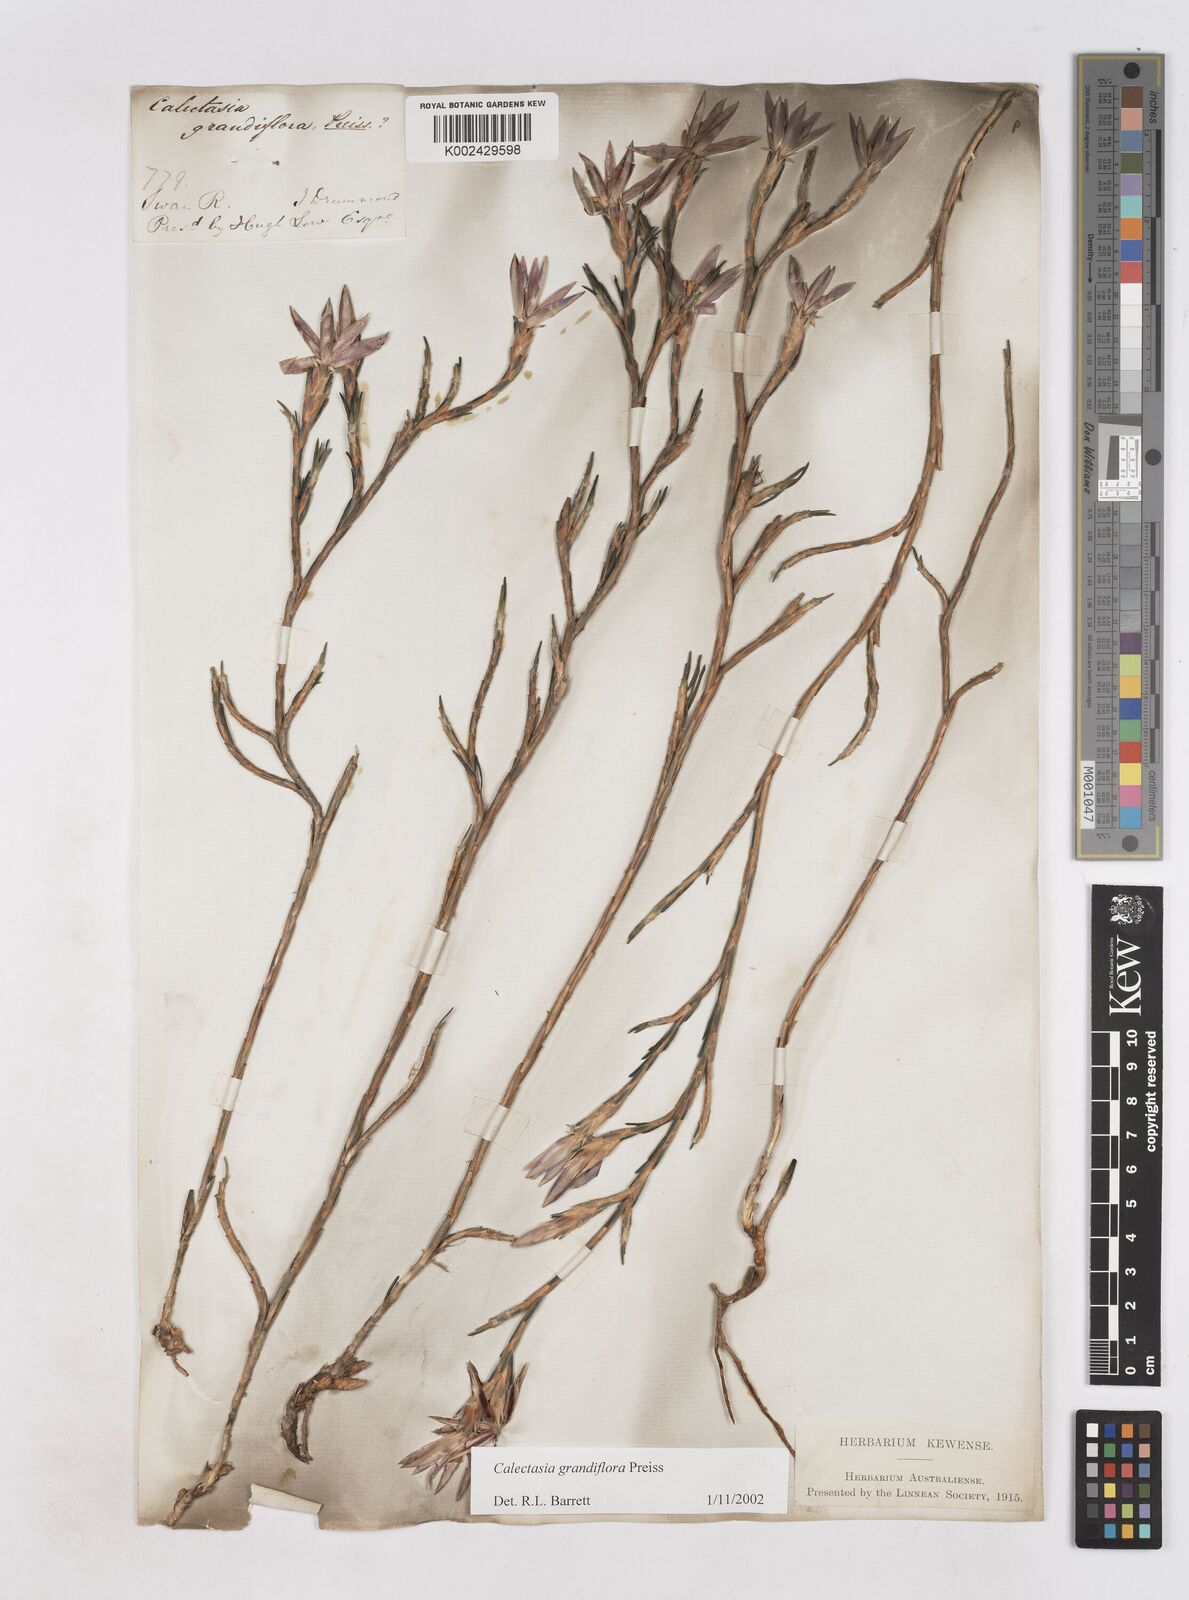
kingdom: Plantae
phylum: Tracheophyta
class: Liliopsida
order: Arecales
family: Dasypogonaceae
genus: Calectasia
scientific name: Calectasia grandiflora
